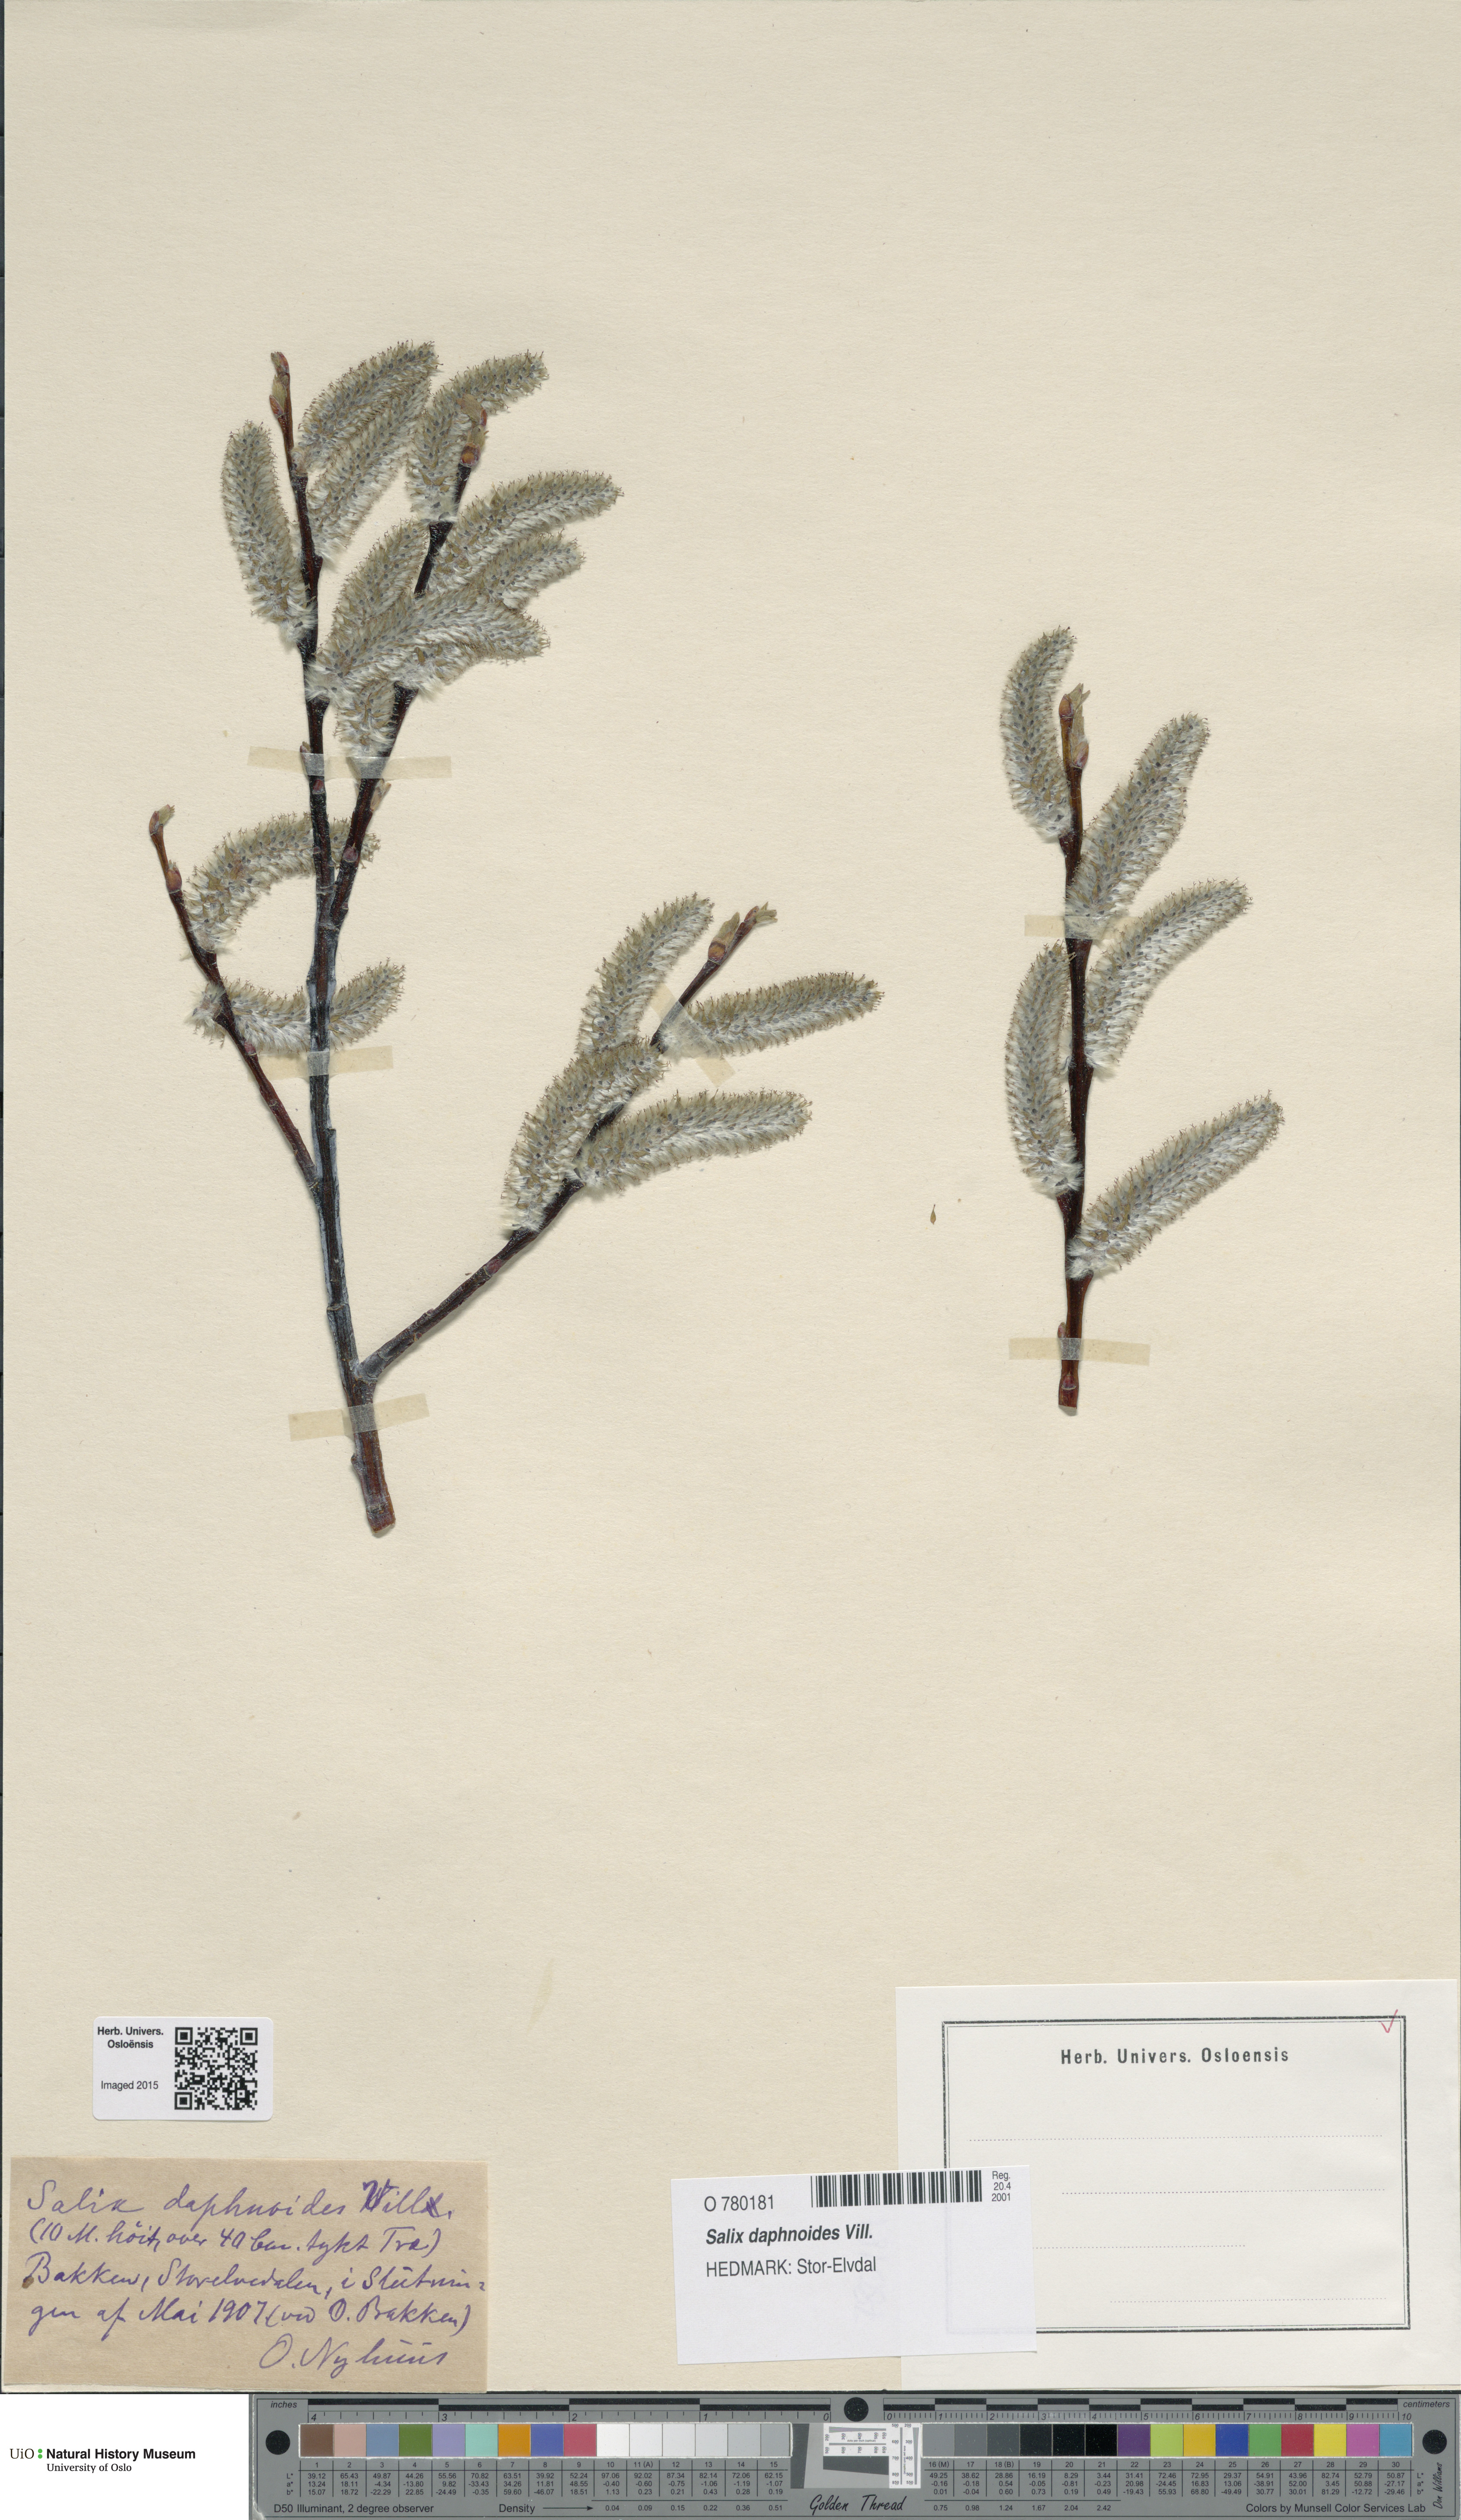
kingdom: Plantae
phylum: Tracheophyta
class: Magnoliopsida
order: Malpighiales
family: Salicaceae
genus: Salix
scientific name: Salix daphnoides
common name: European violet-willow
